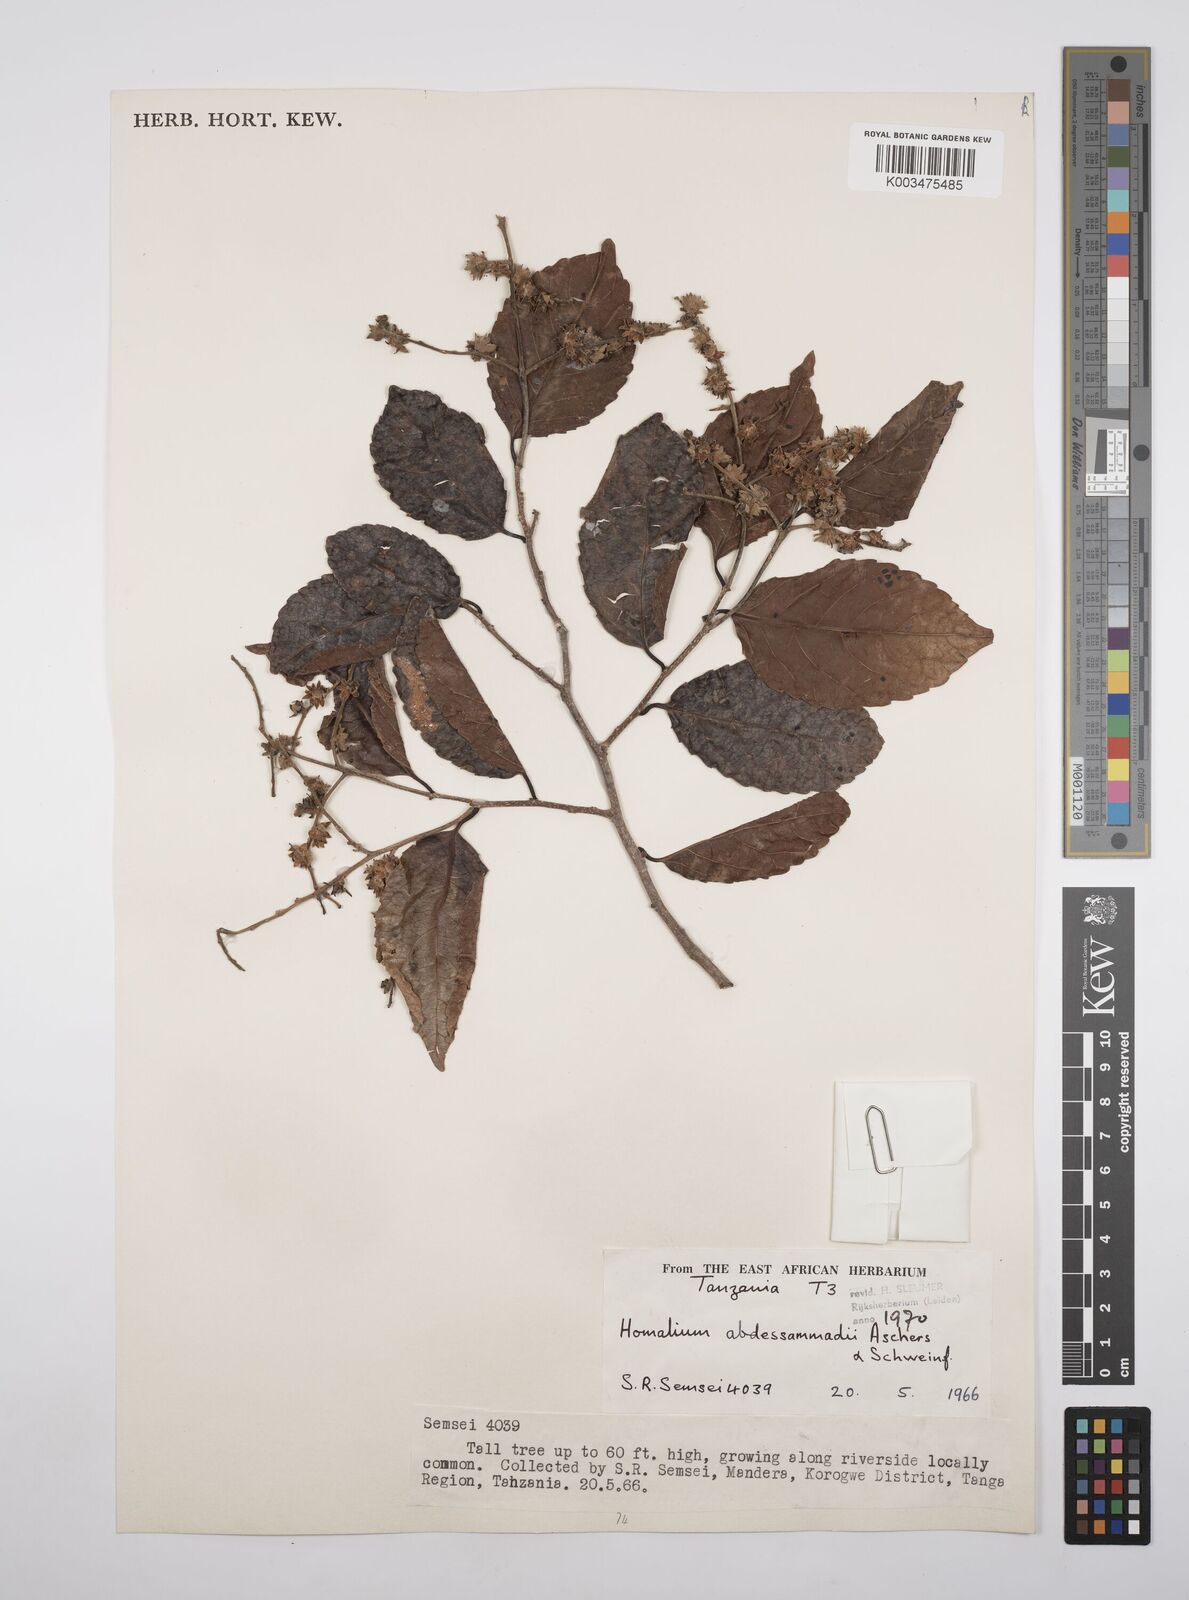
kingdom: Plantae
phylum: Tracheophyta
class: Magnoliopsida
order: Malpighiales
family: Salicaceae
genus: Homalium
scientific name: Homalium abdessammadii
